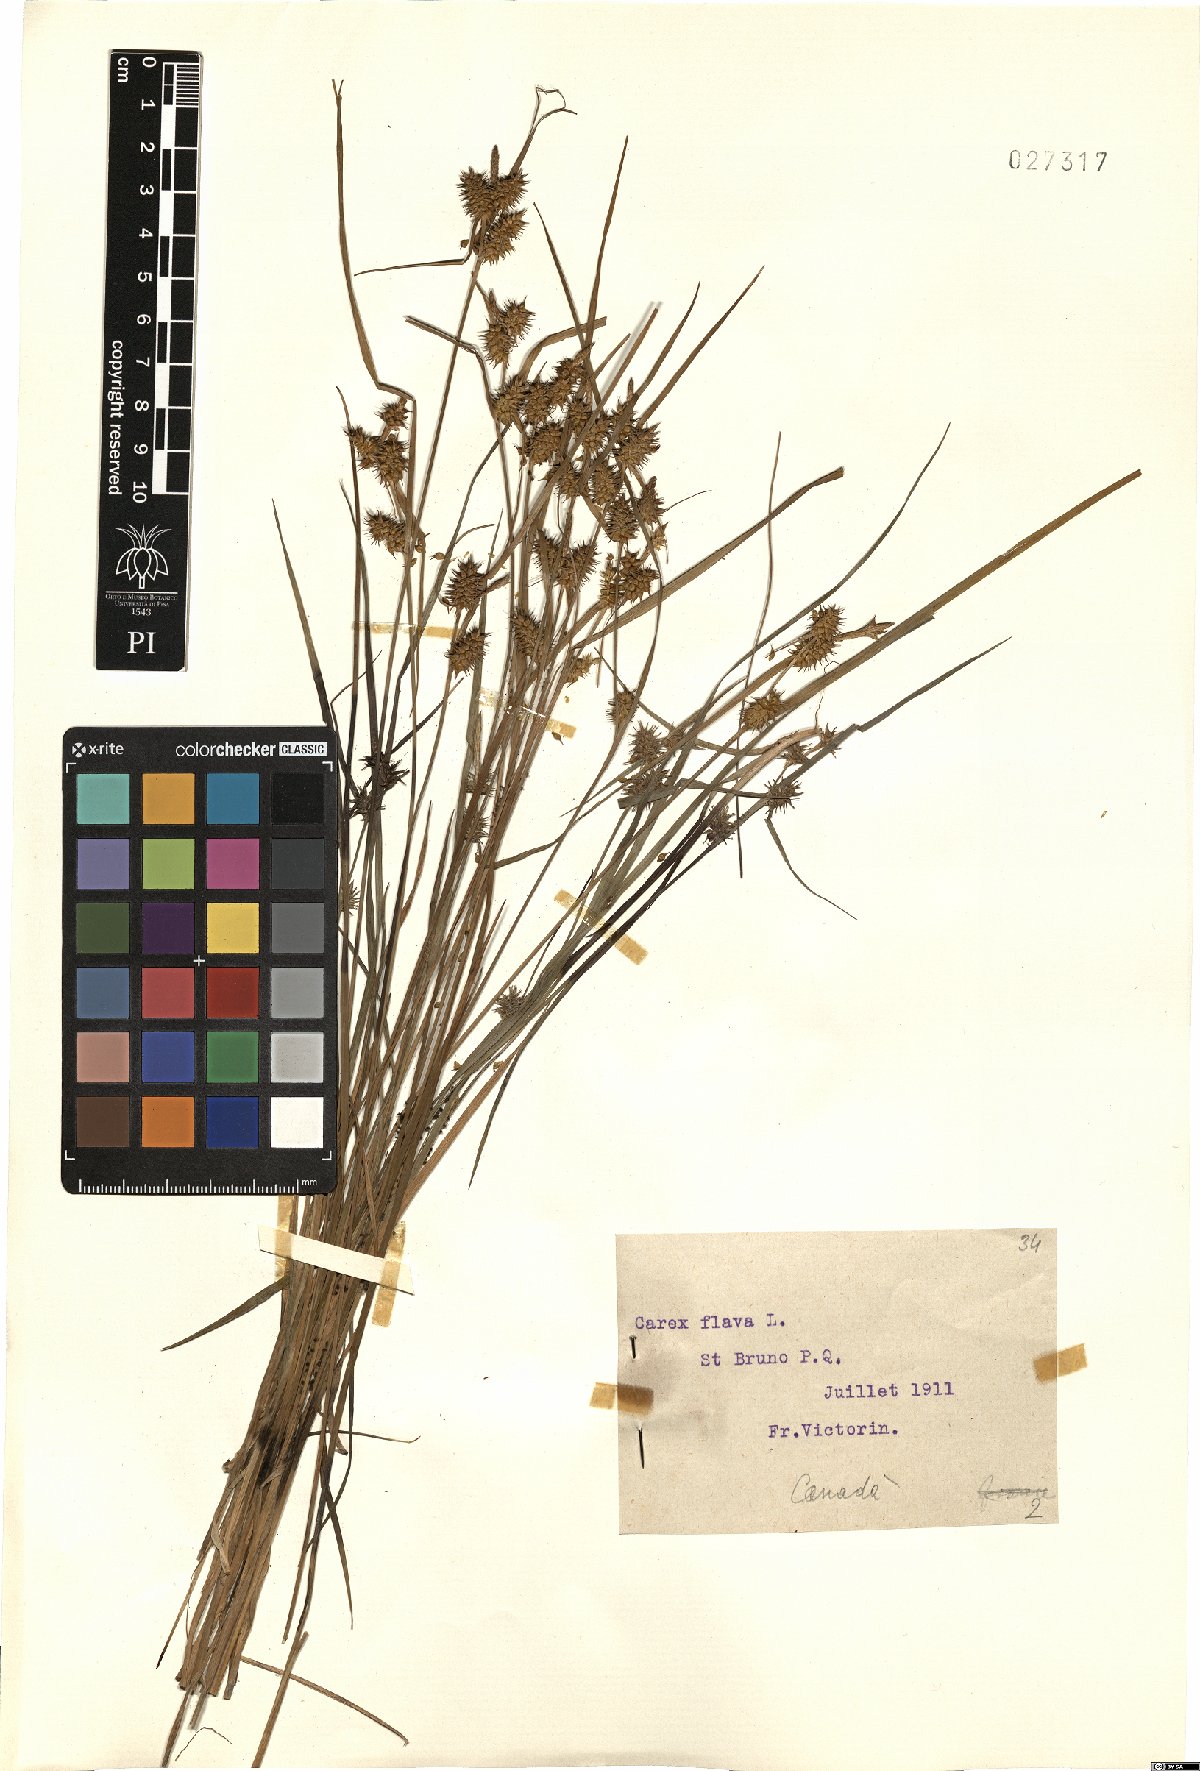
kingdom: Plantae
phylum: Tracheophyta
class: Liliopsida
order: Poales
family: Cyperaceae
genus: Carex
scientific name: Carex flava
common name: Large yellow-sedge
